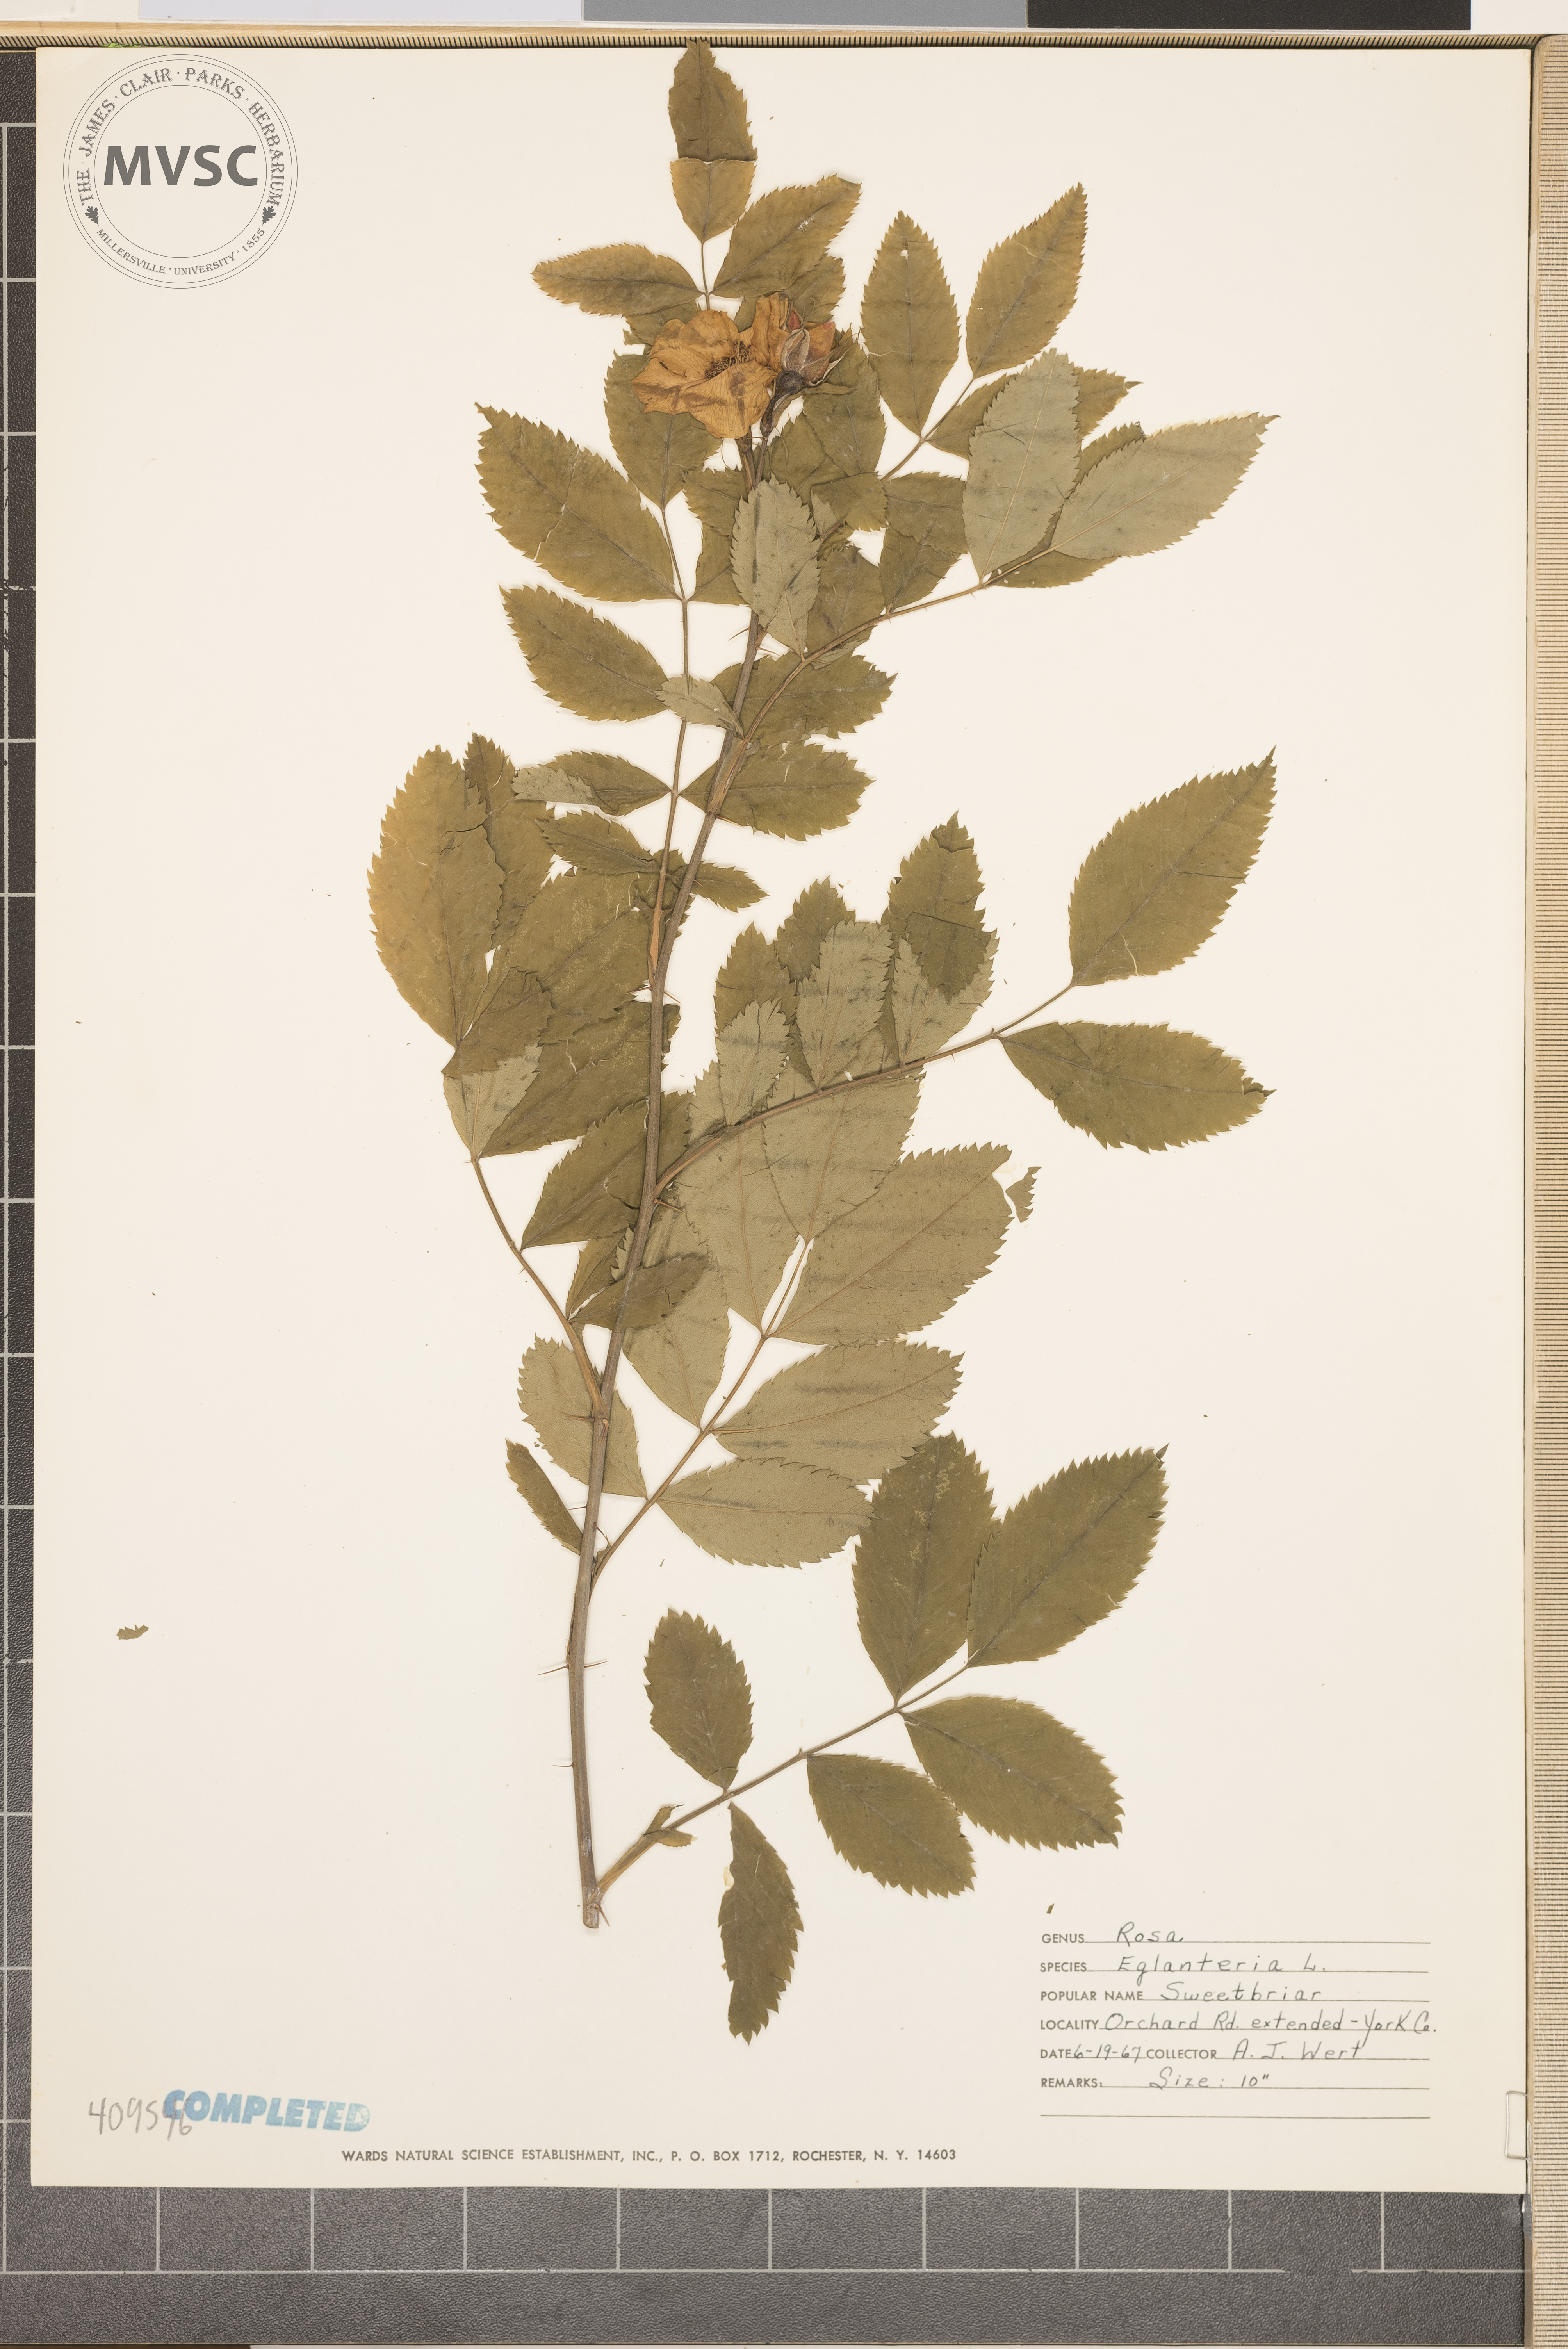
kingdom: Plantae
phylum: Tracheophyta
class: Magnoliopsida
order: Lamiales
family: Oleaceae
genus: Fraxinus
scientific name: Fraxinus americana
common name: White ash
